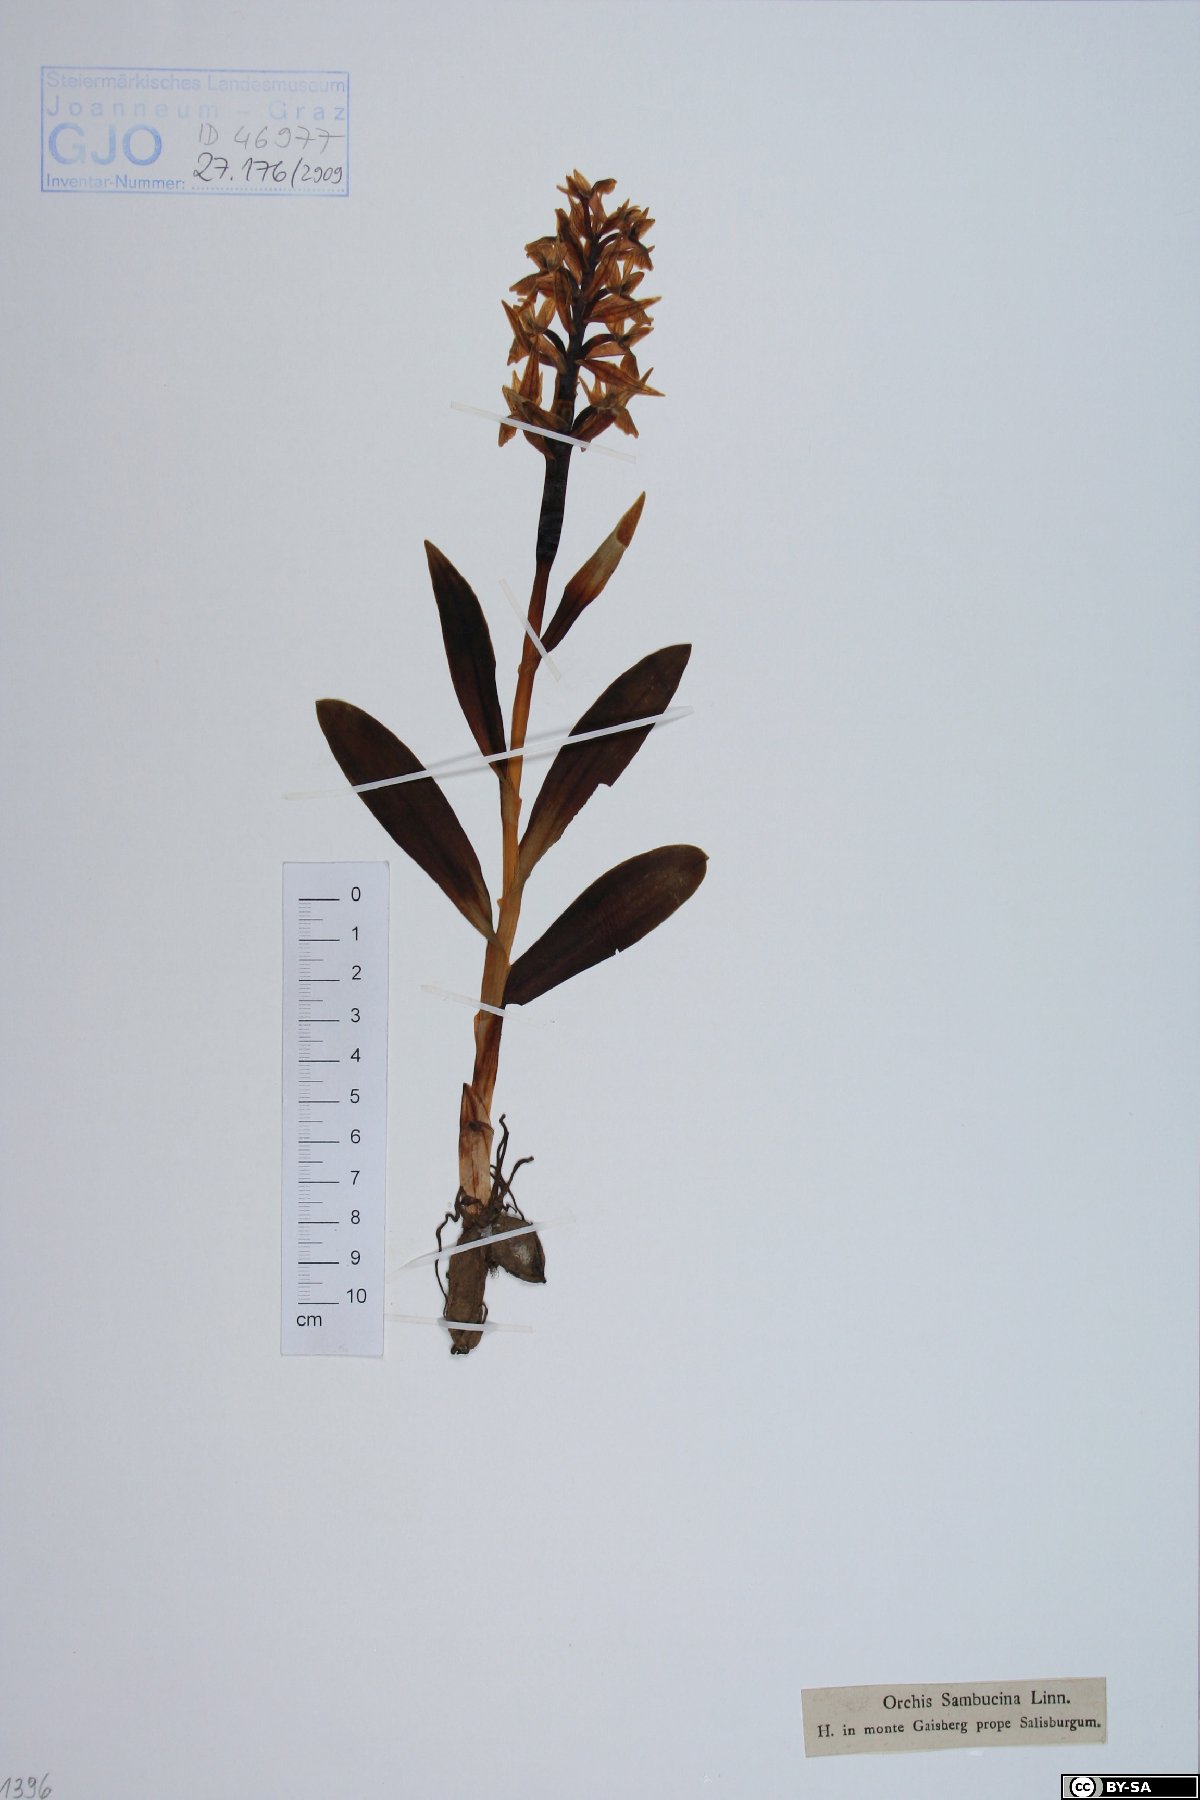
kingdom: Plantae
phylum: Tracheophyta
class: Liliopsida
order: Asparagales
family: Orchidaceae
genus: Dactylorhiza
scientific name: Dactylorhiza sambucina
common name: Elder-flowered orchid
